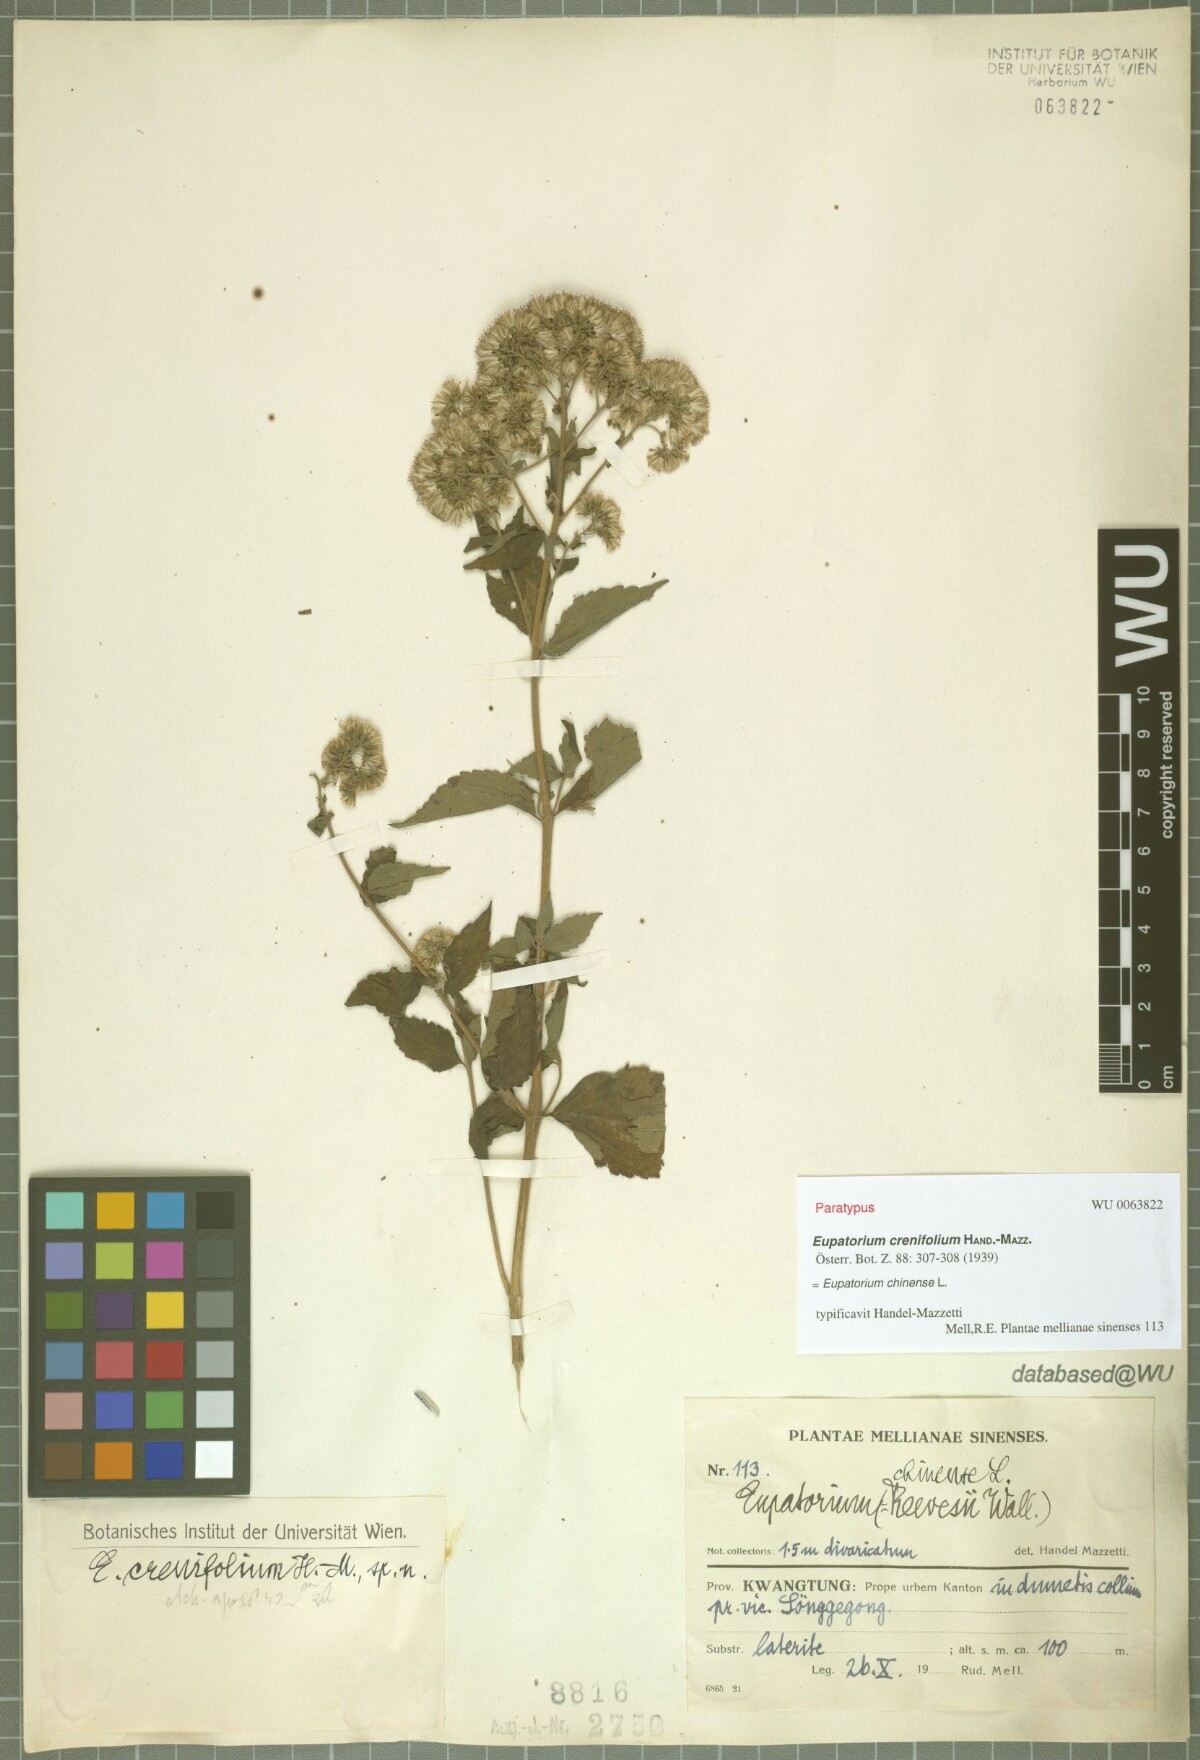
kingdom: Plantae
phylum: Tracheophyta
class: Magnoliopsida
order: Asterales
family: Asteraceae
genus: Eupatorium
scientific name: Eupatorium crenifolium
